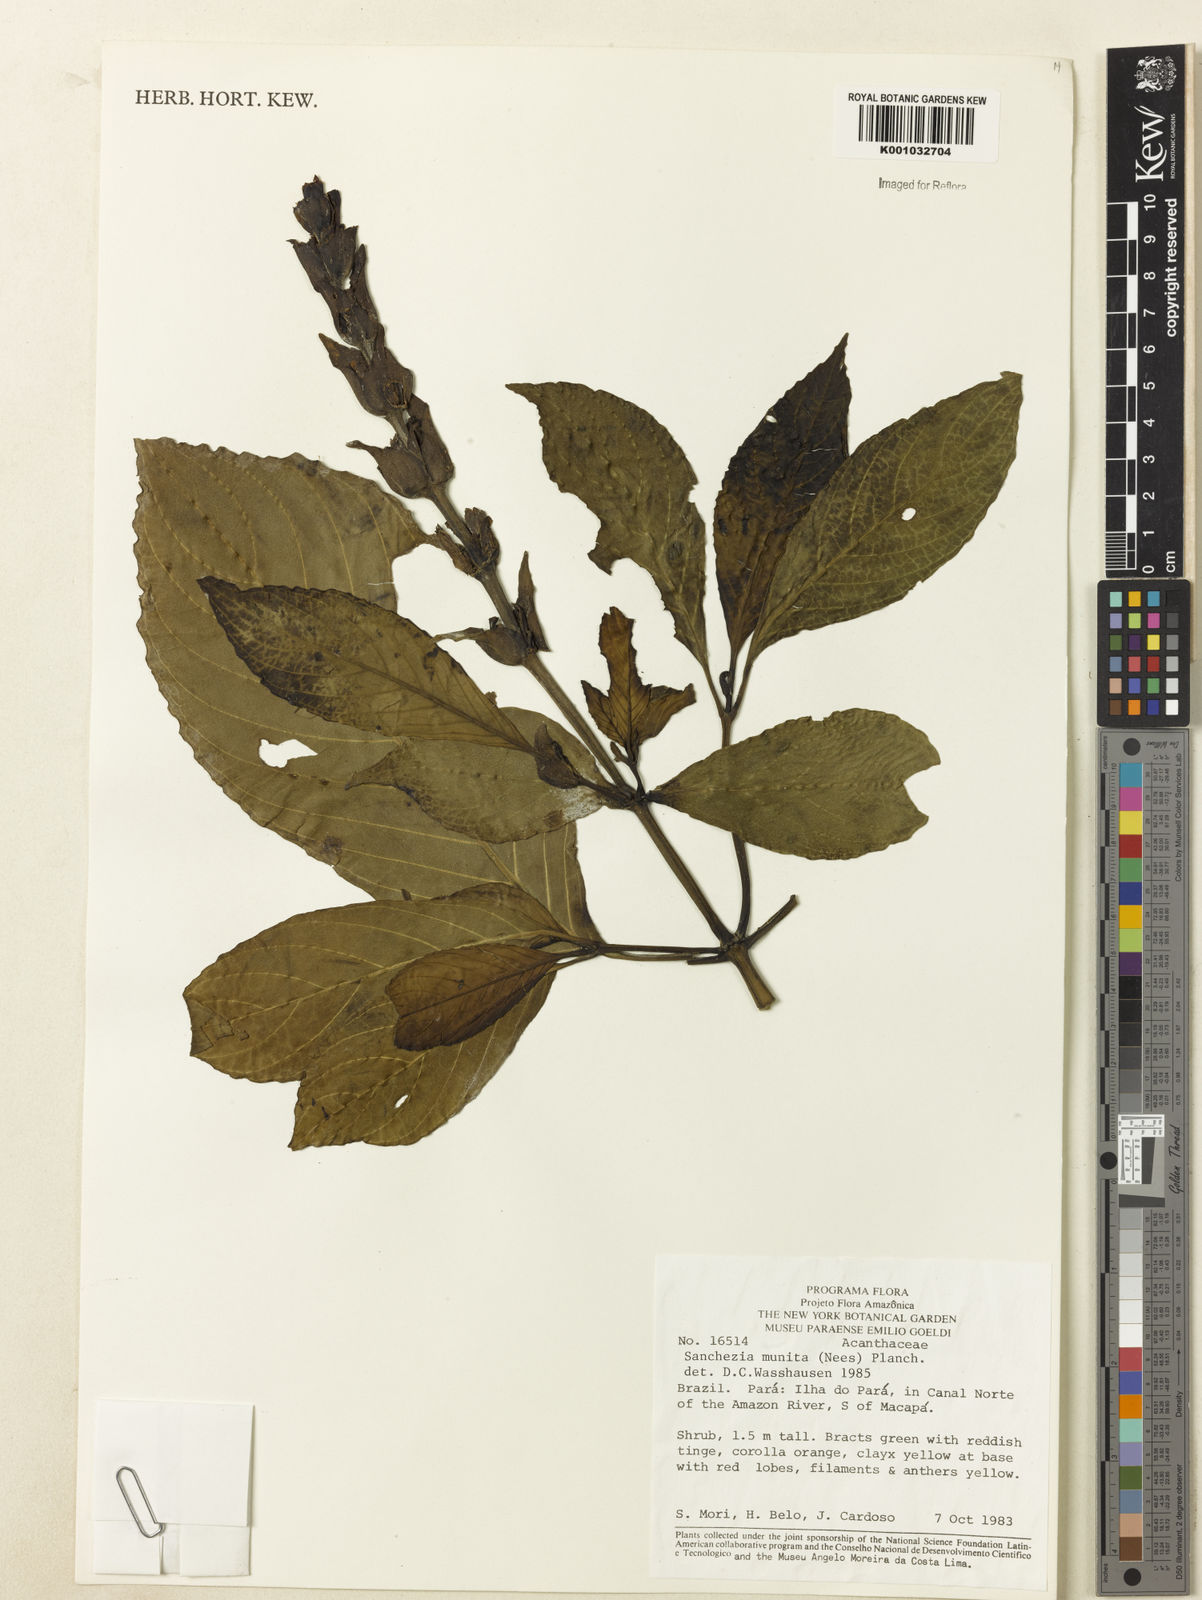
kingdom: Plantae
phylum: Tracheophyta
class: Magnoliopsida
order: Lamiales
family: Acanthaceae
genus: Sanchezia
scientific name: Sanchezia munita
